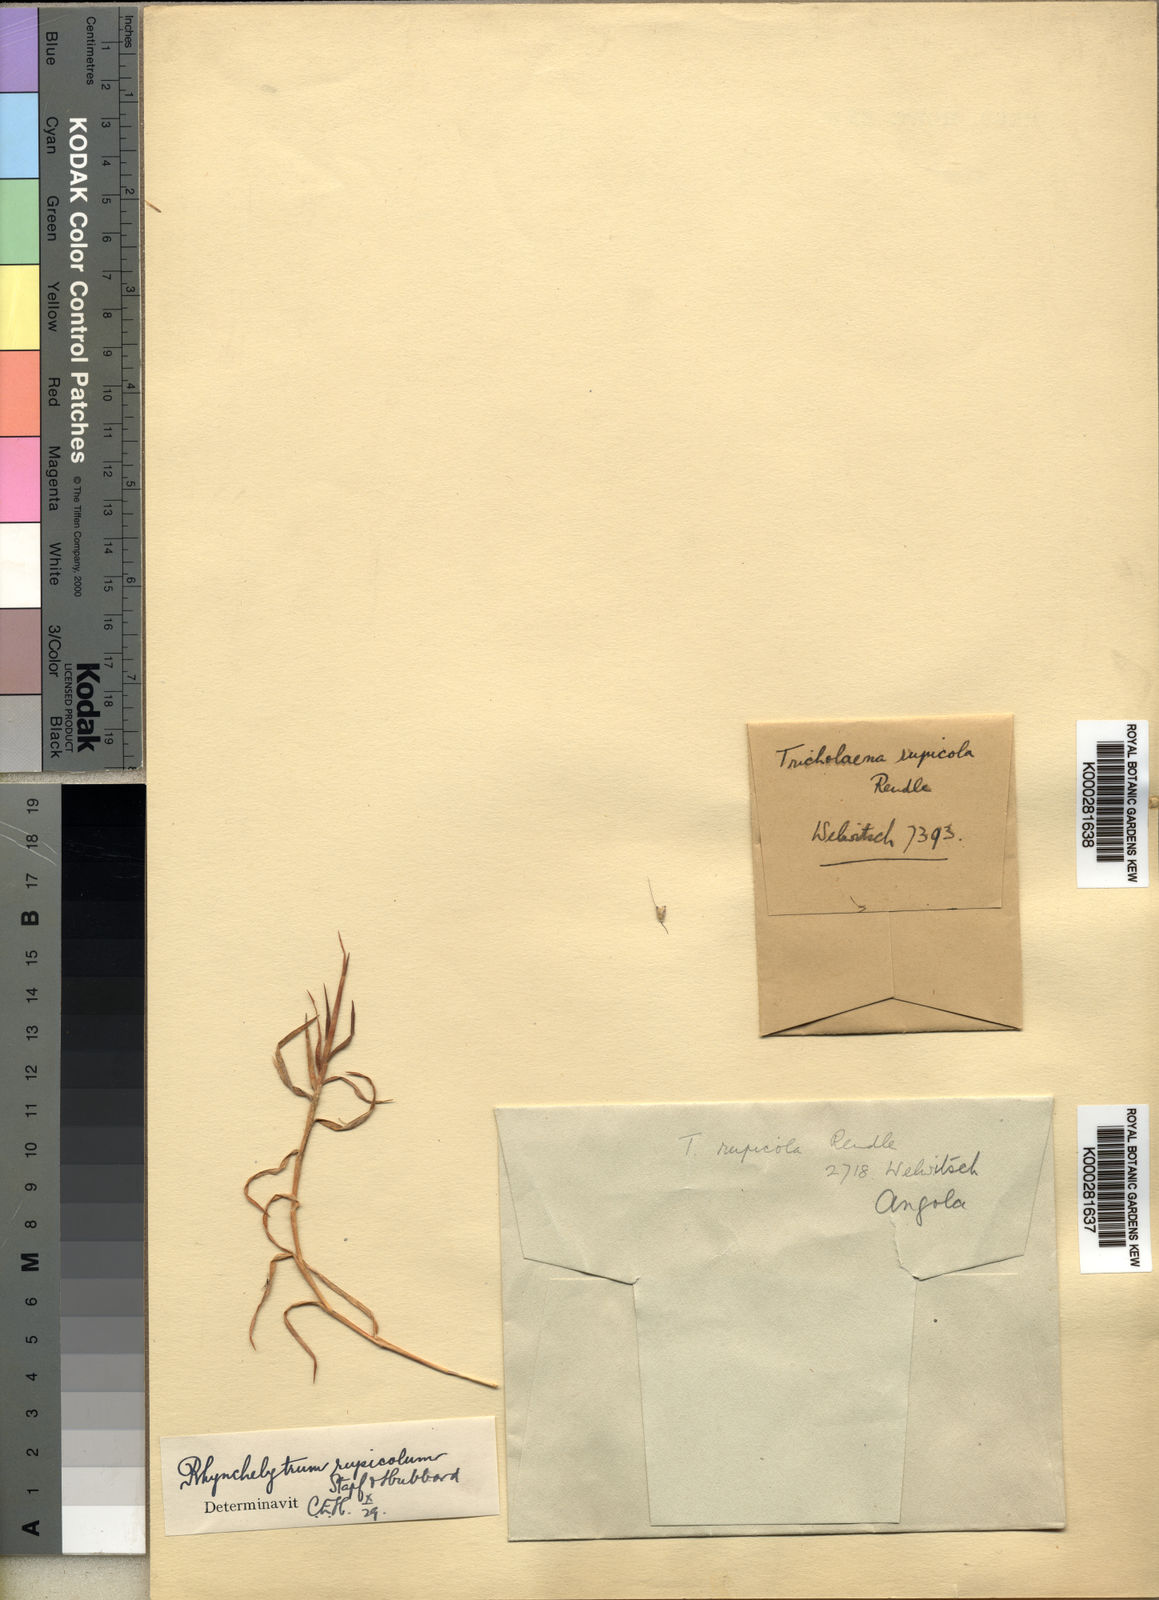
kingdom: Plantae
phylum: Tracheophyta
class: Liliopsida
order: Poales
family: Poaceae
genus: Melinis
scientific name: Melinis rupicola
